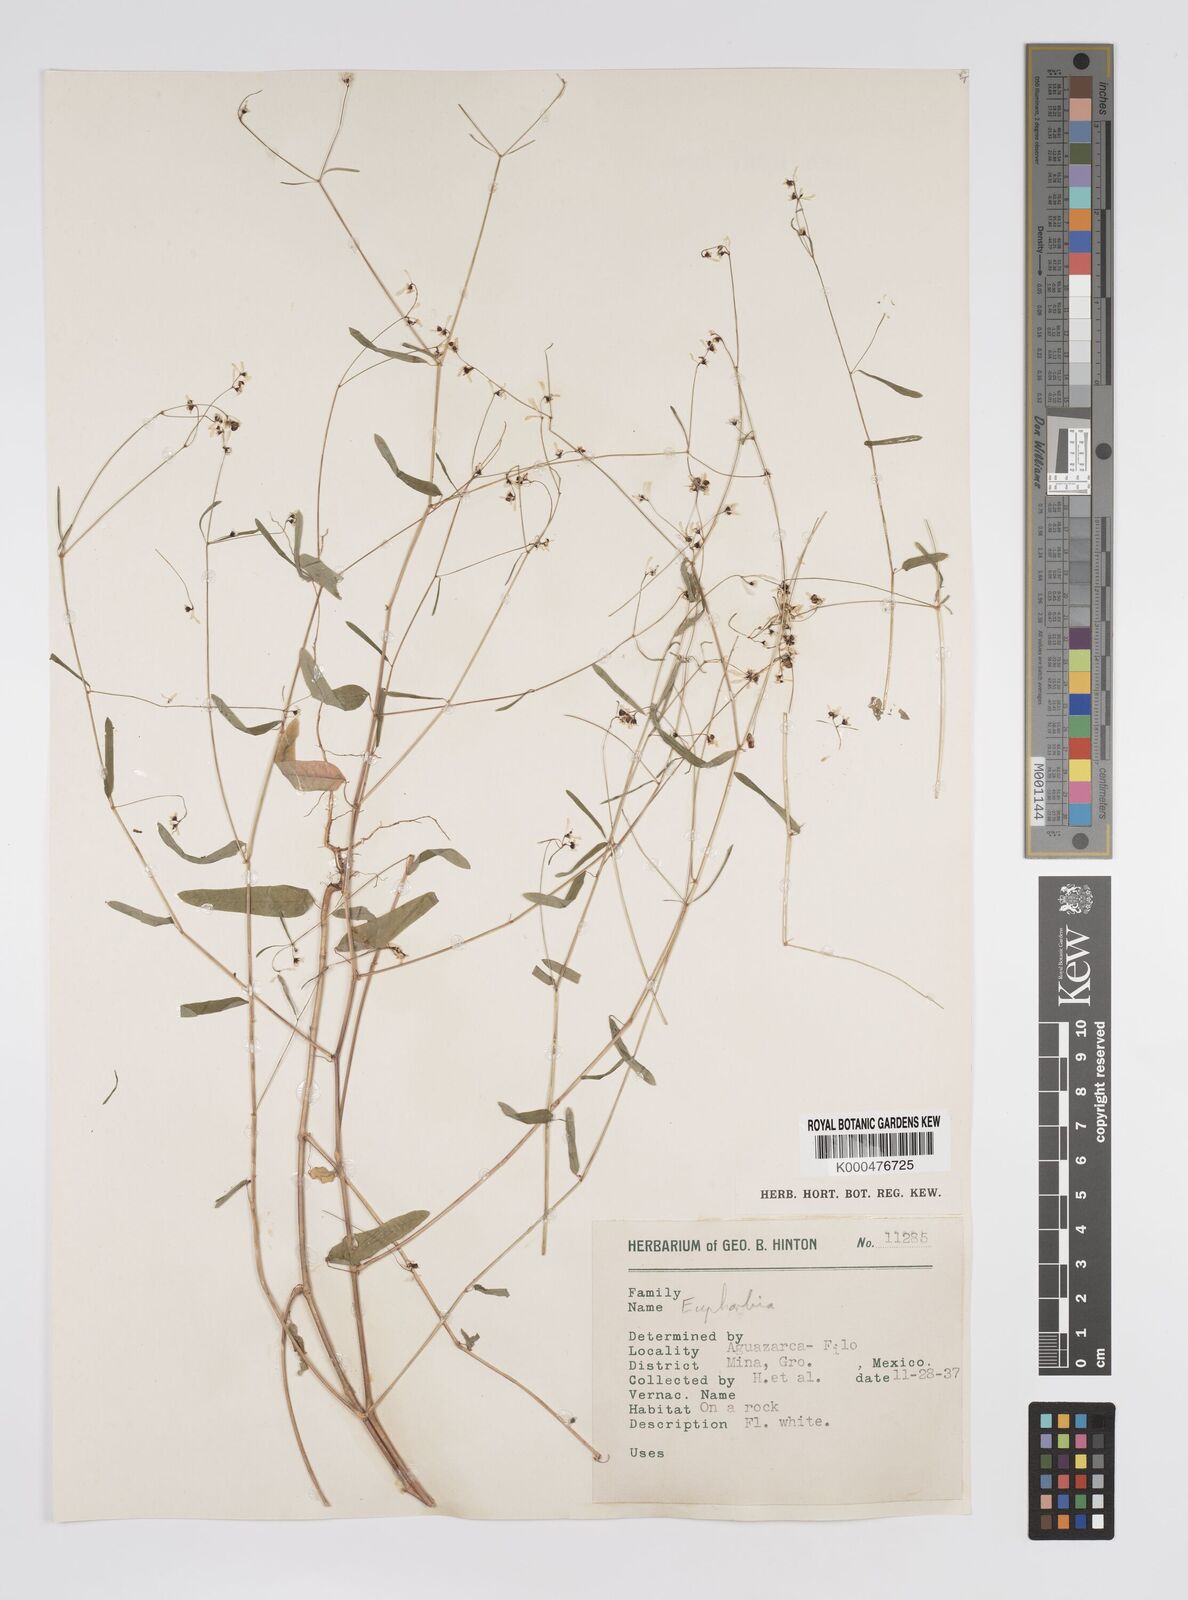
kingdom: Plantae
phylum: Tracheophyta
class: Magnoliopsida
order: Malpighiales
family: Euphorbiaceae
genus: Euphorbia
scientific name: Euphorbia
